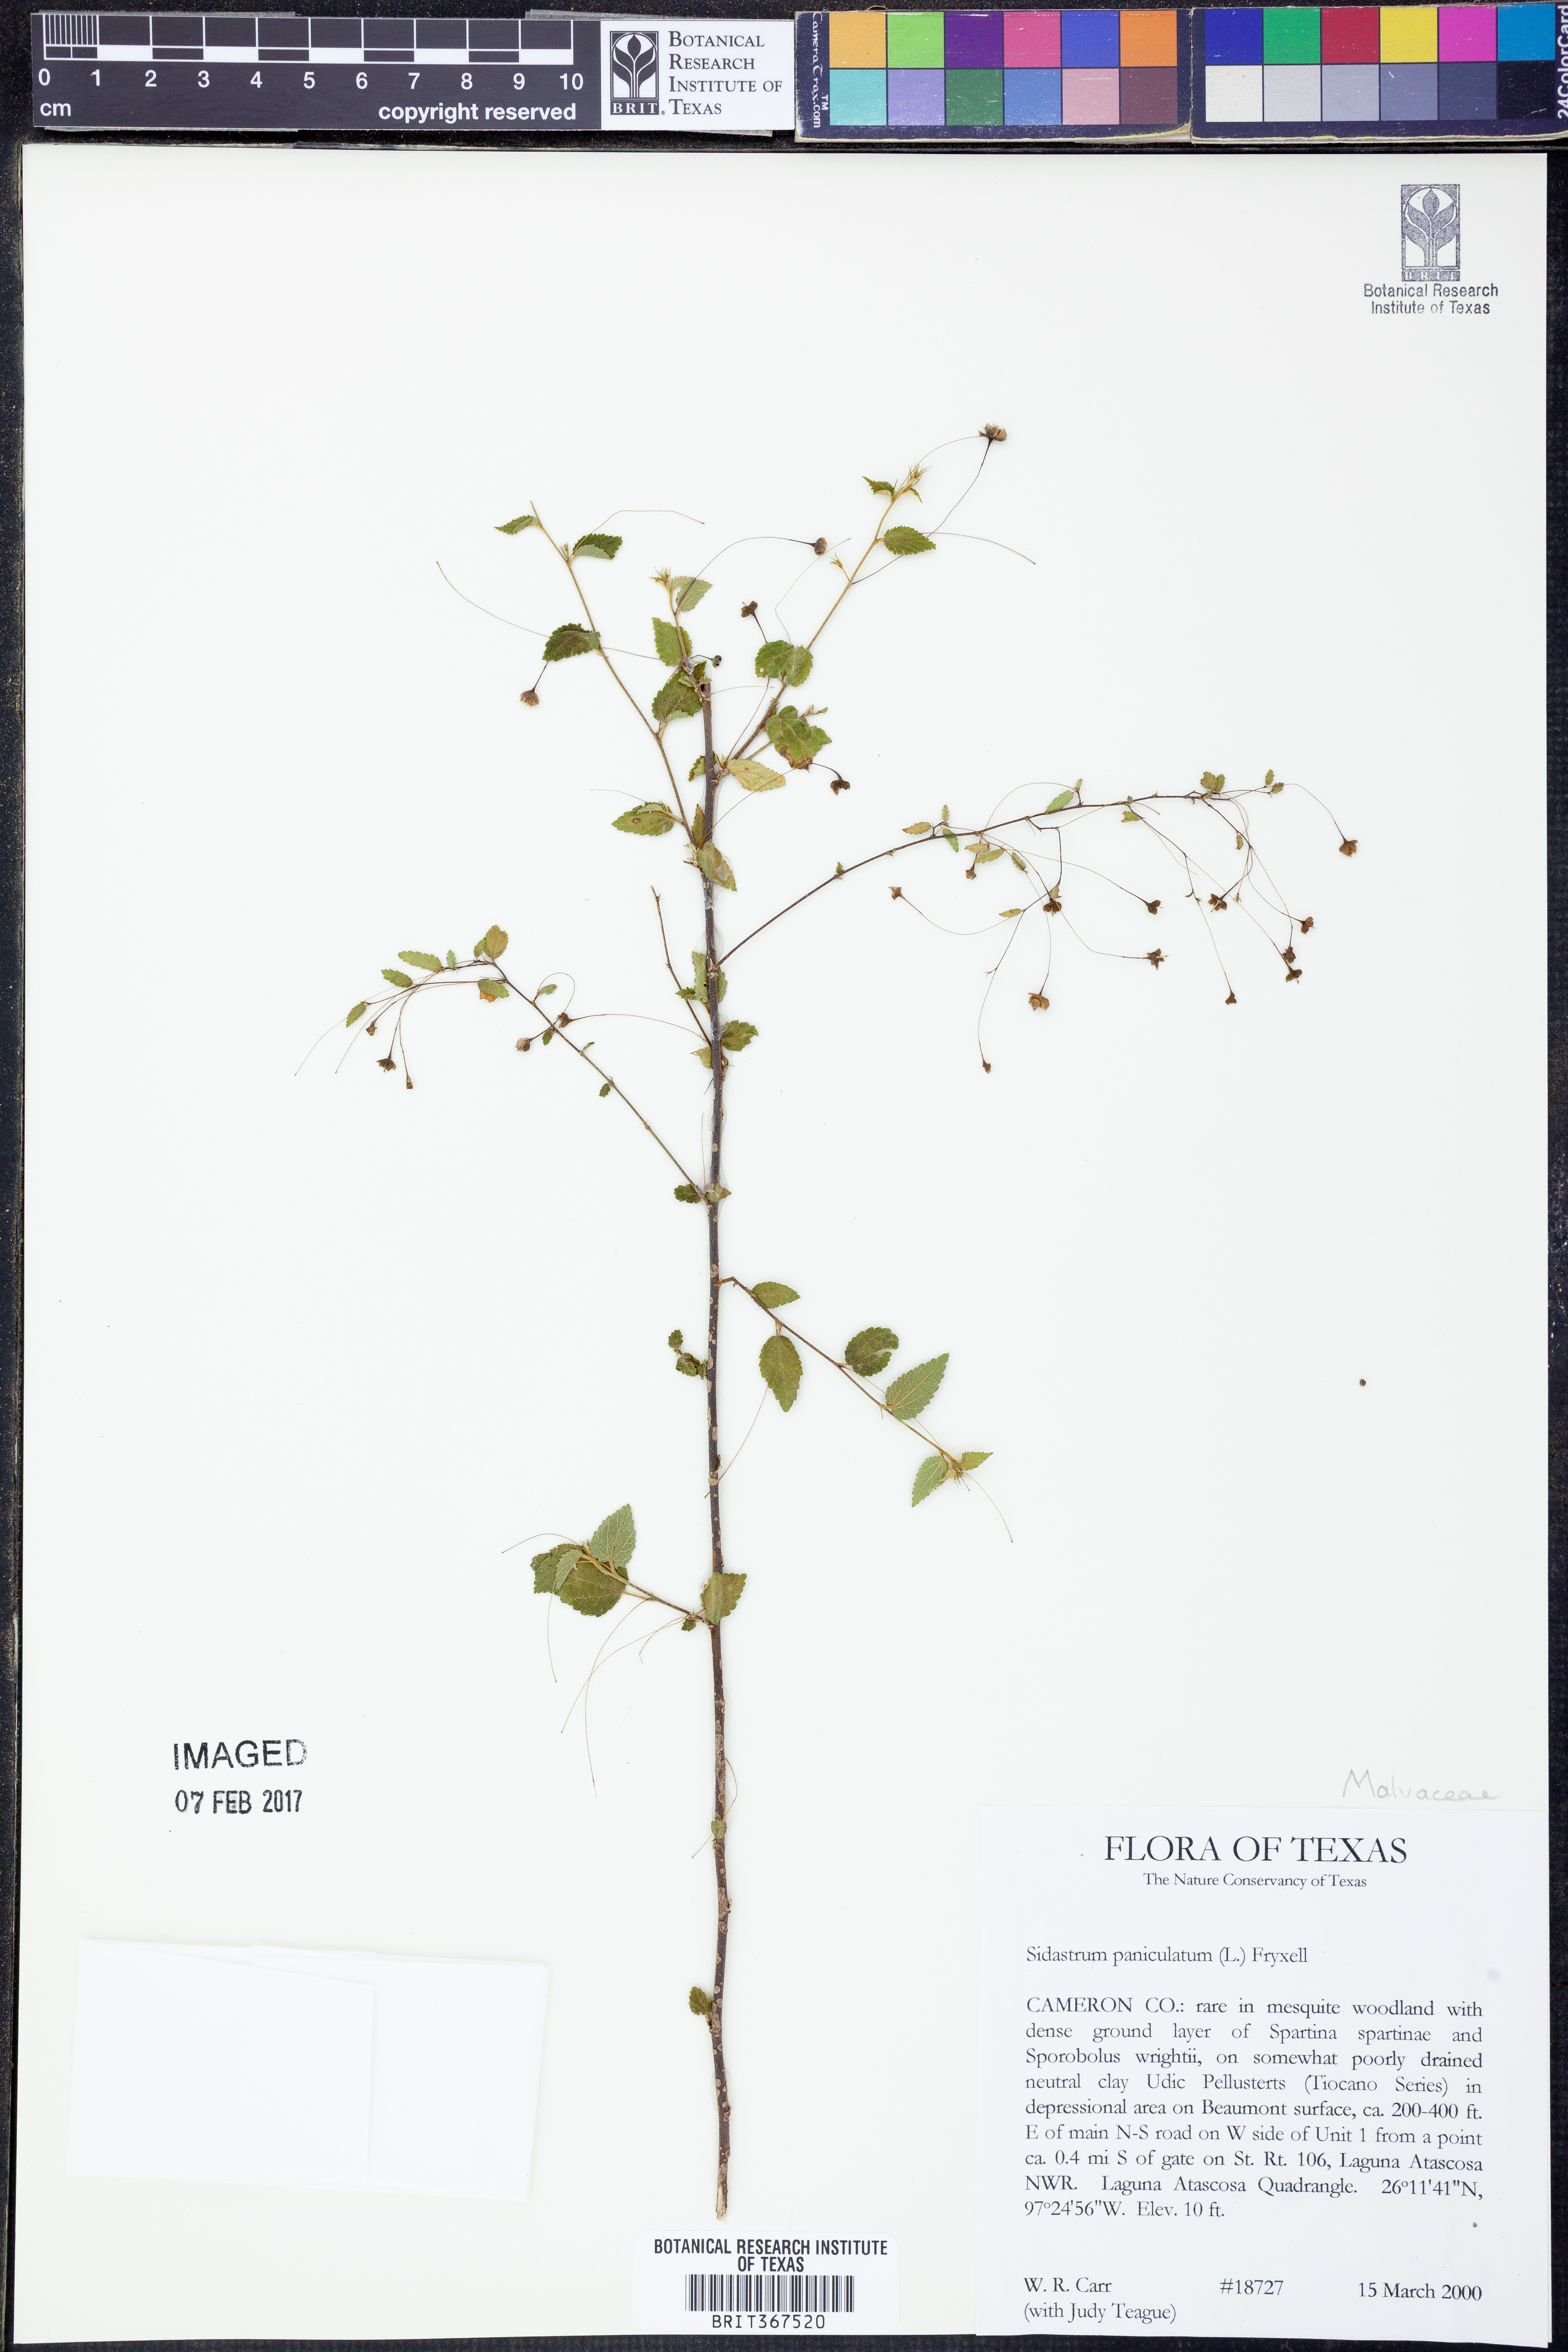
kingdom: Plantae
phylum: Tracheophyta
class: Magnoliopsida
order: Malvales
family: Malvaceae
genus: Sidastrum
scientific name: Sidastrum paniculatum
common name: Panicled sandmallow
